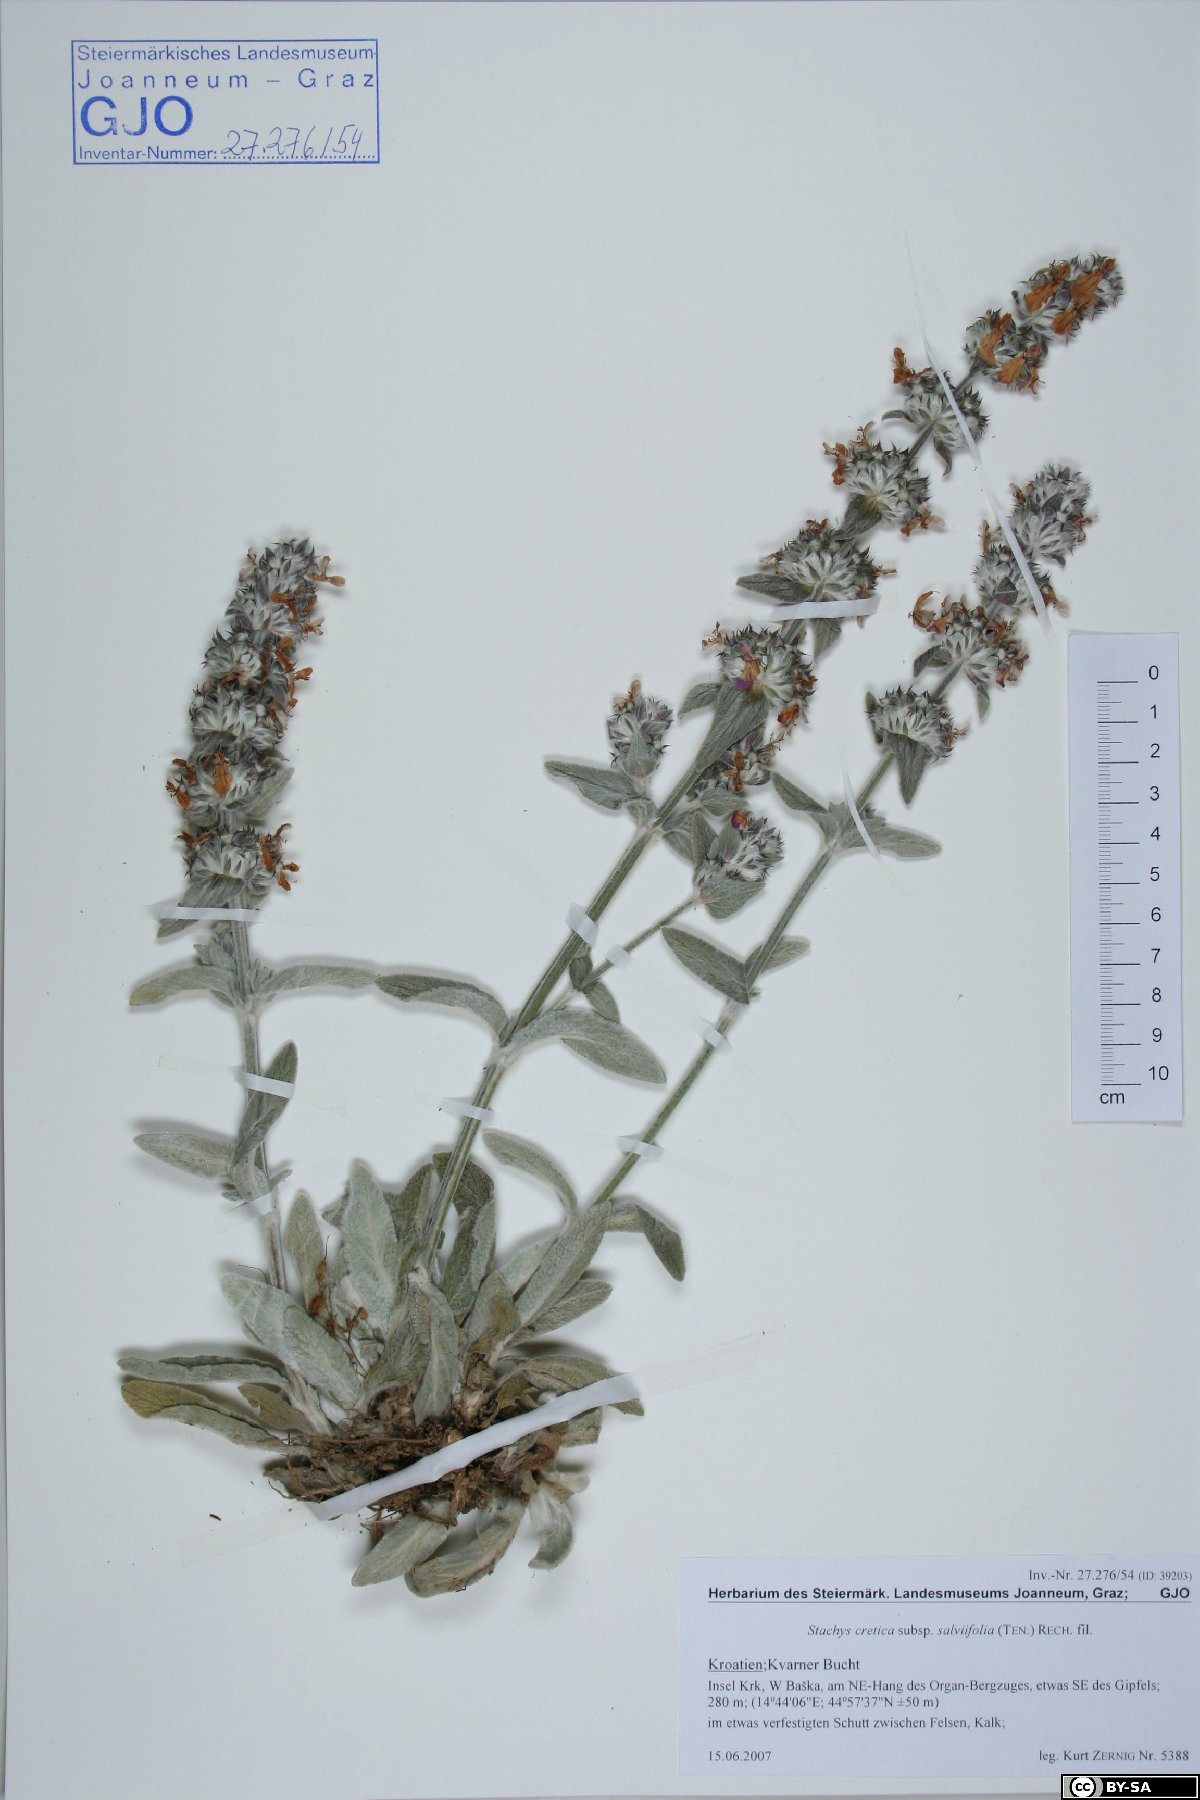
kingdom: Plantae
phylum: Tracheophyta
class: Magnoliopsida
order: Lamiales
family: Lamiaceae
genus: Stachys
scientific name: Stachys cretica
